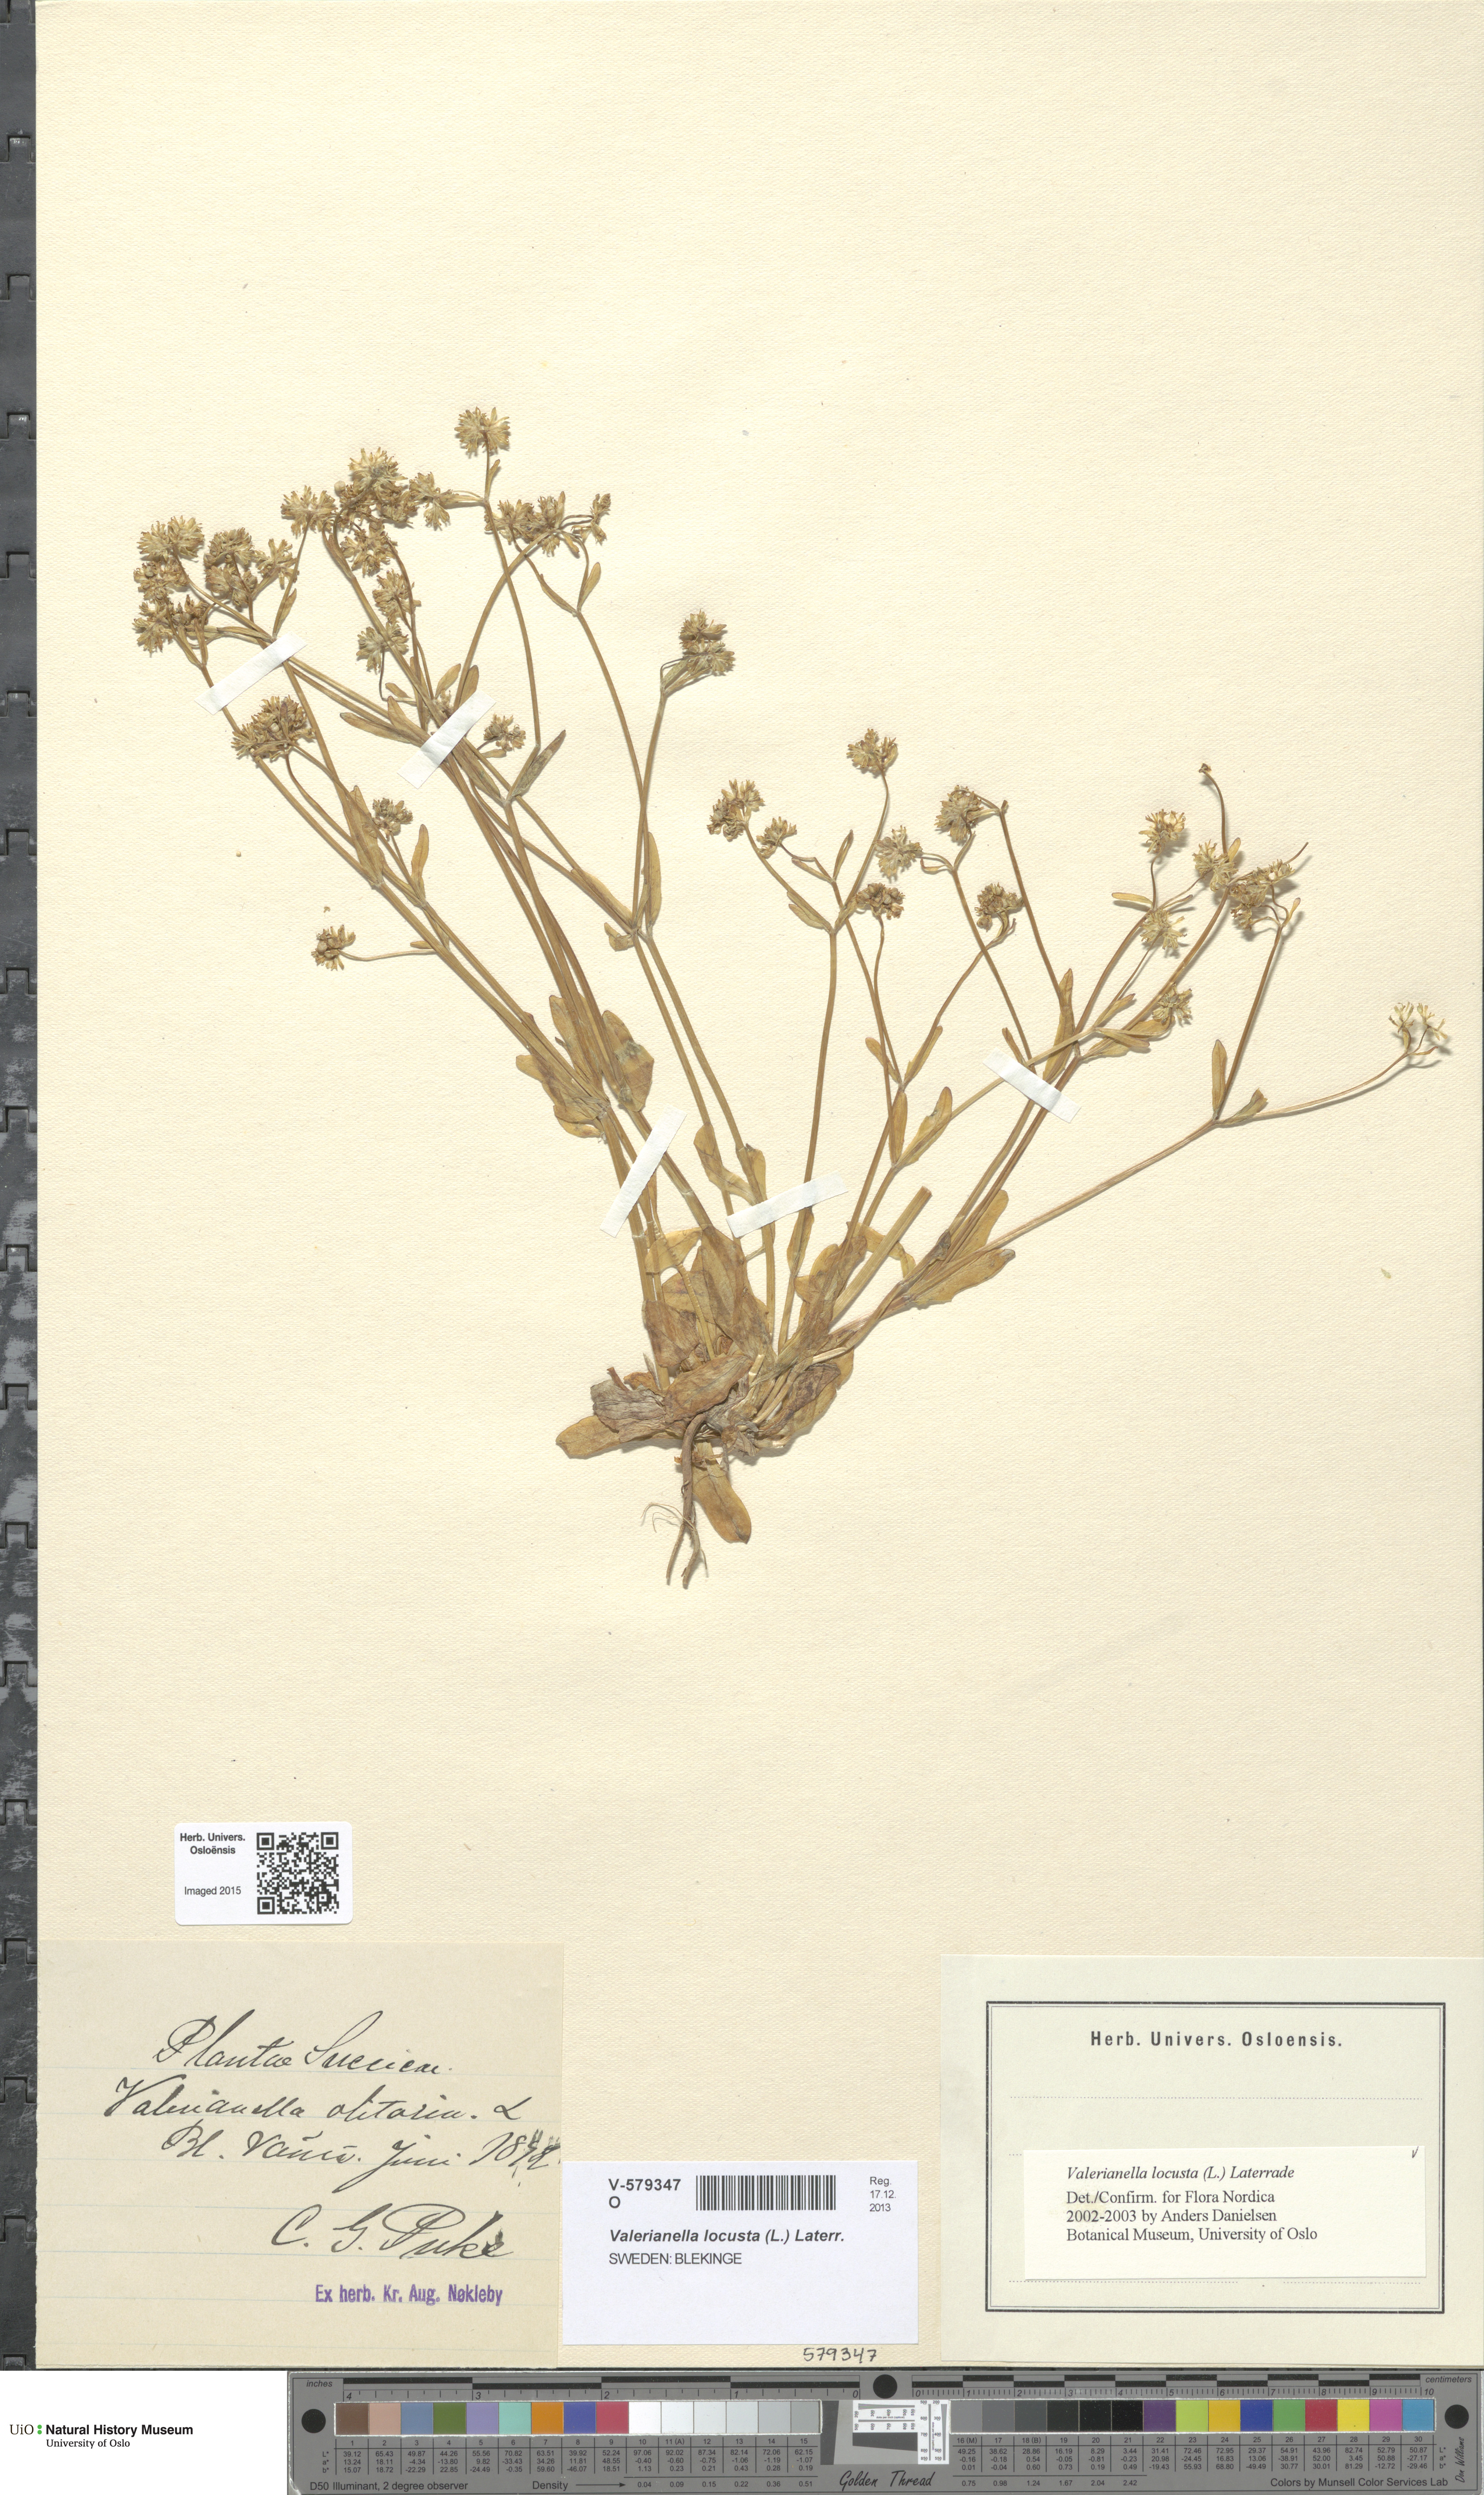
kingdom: Plantae
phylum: Tracheophyta
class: Magnoliopsida
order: Dipsacales
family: Caprifoliaceae
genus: Valerianella
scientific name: Valerianella locusta
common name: Common cornsalad
